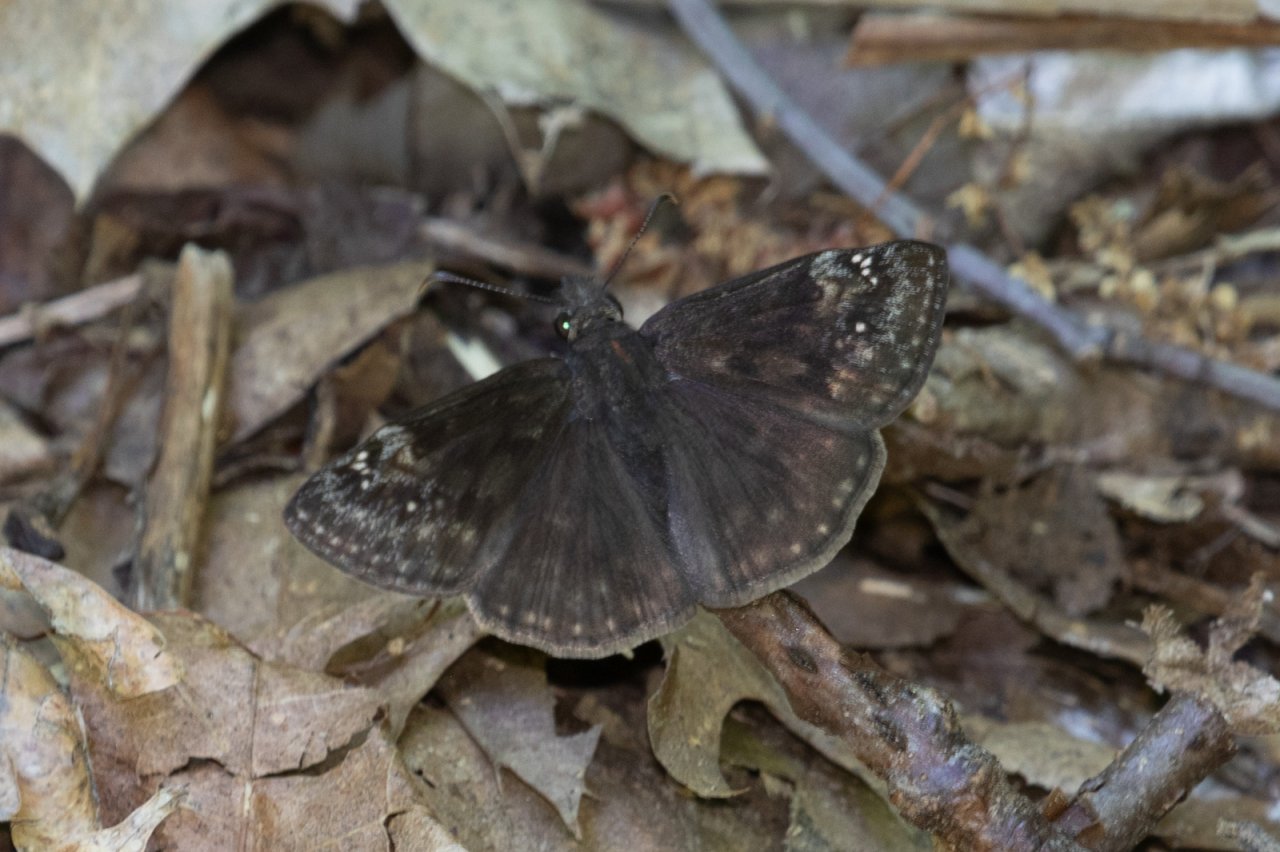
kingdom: Animalia
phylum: Arthropoda
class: Insecta
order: Lepidoptera
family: Hesperiidae
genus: Gesta
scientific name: Gesta
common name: Wild Indigo Duskywing
